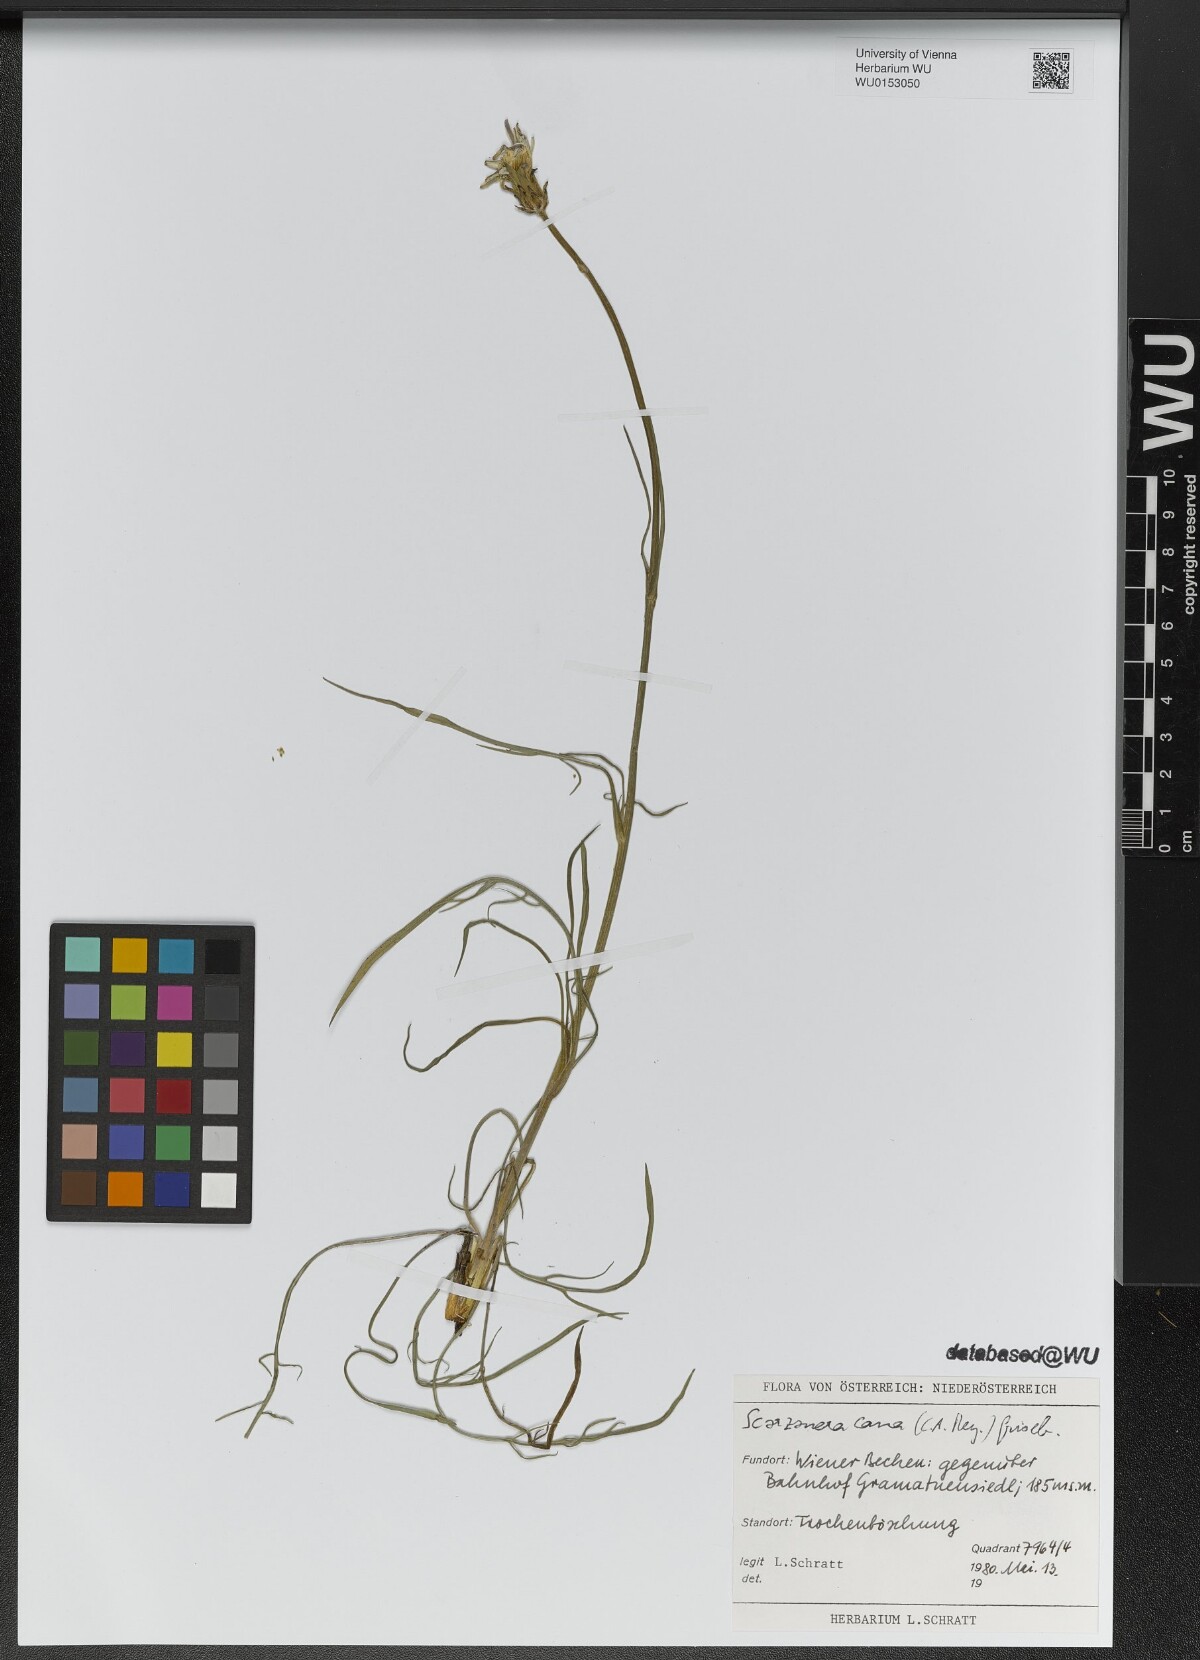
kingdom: Plantae
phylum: Tracheophyta
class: Magnoliopsida
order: Asterales
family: Asteraceae
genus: Scorzonera
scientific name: Scorzonera cana
